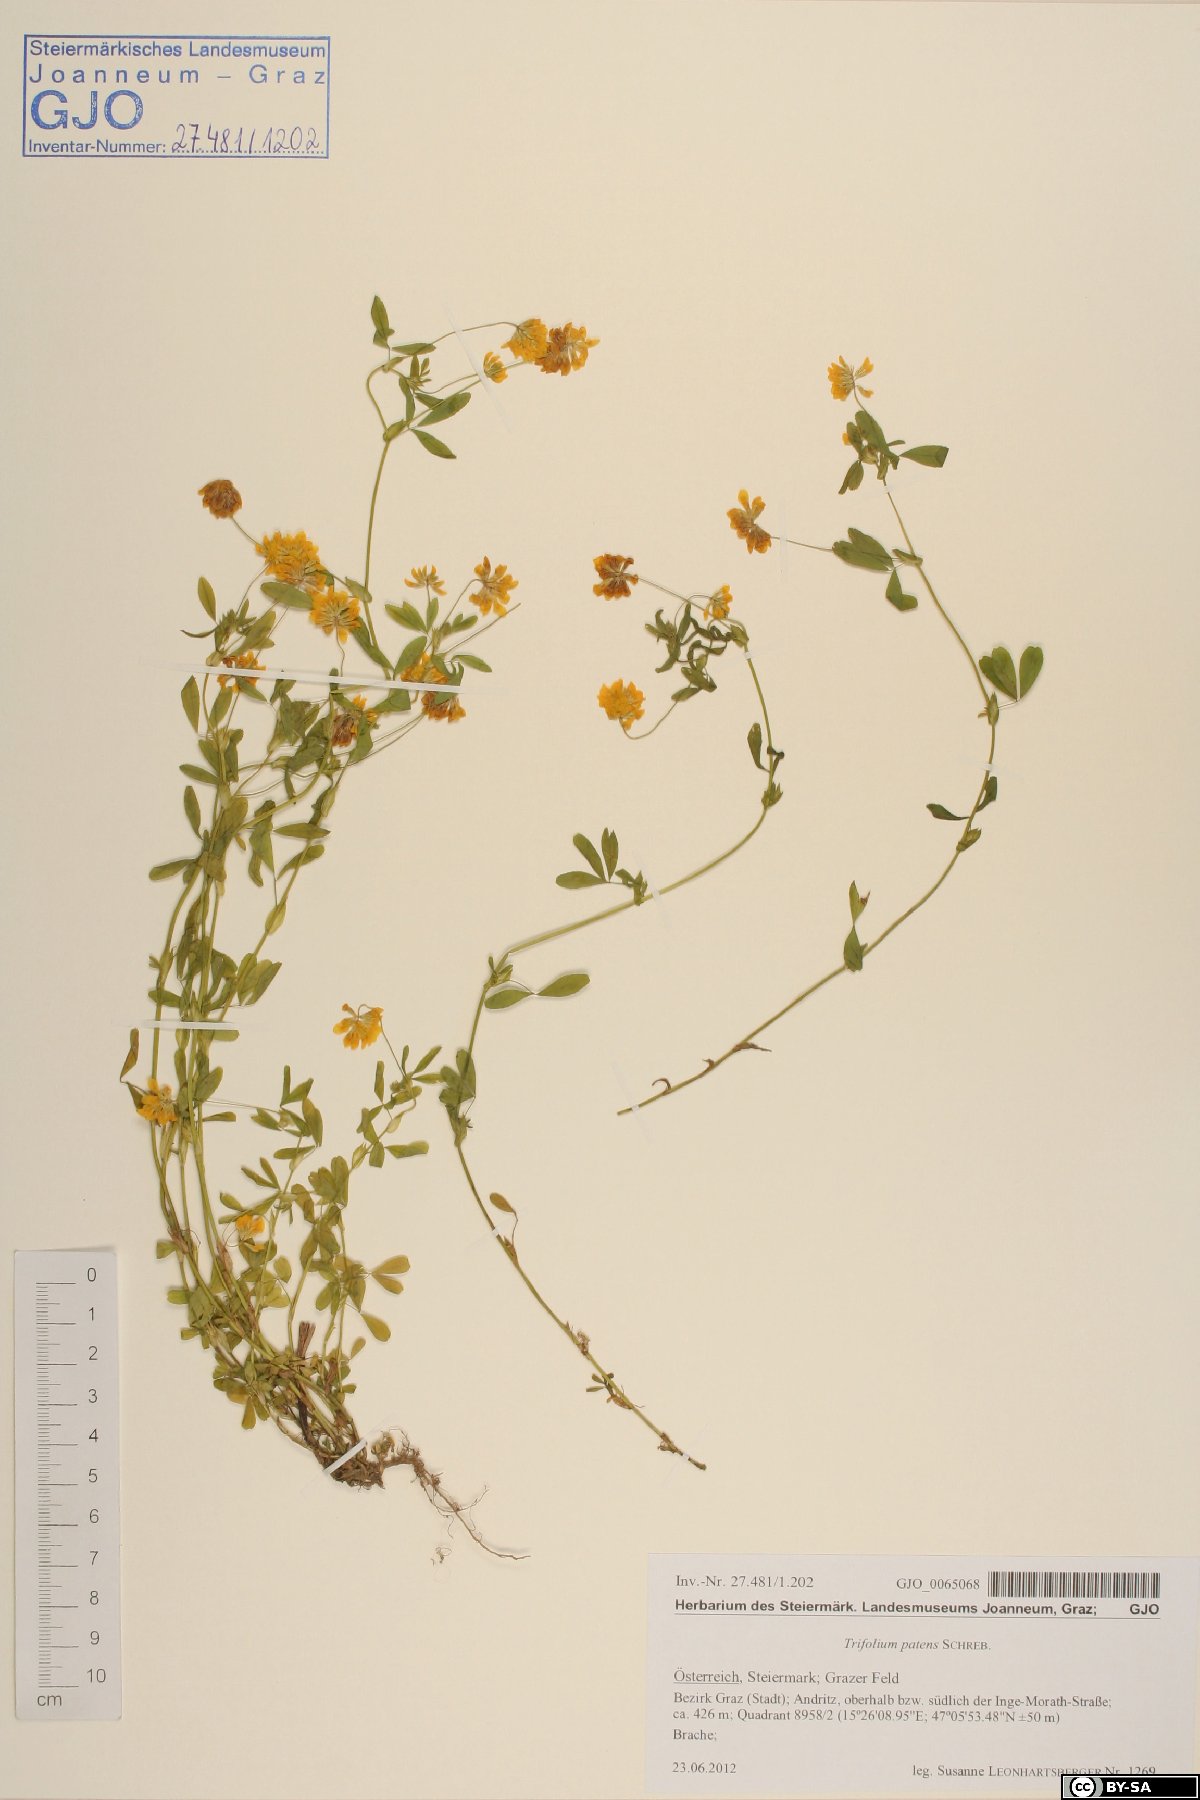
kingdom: Plantae
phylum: Tracheophyta
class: Magnoliopsida
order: Fabales
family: Fabaceae
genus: Trifolium
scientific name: Trifolium patens
